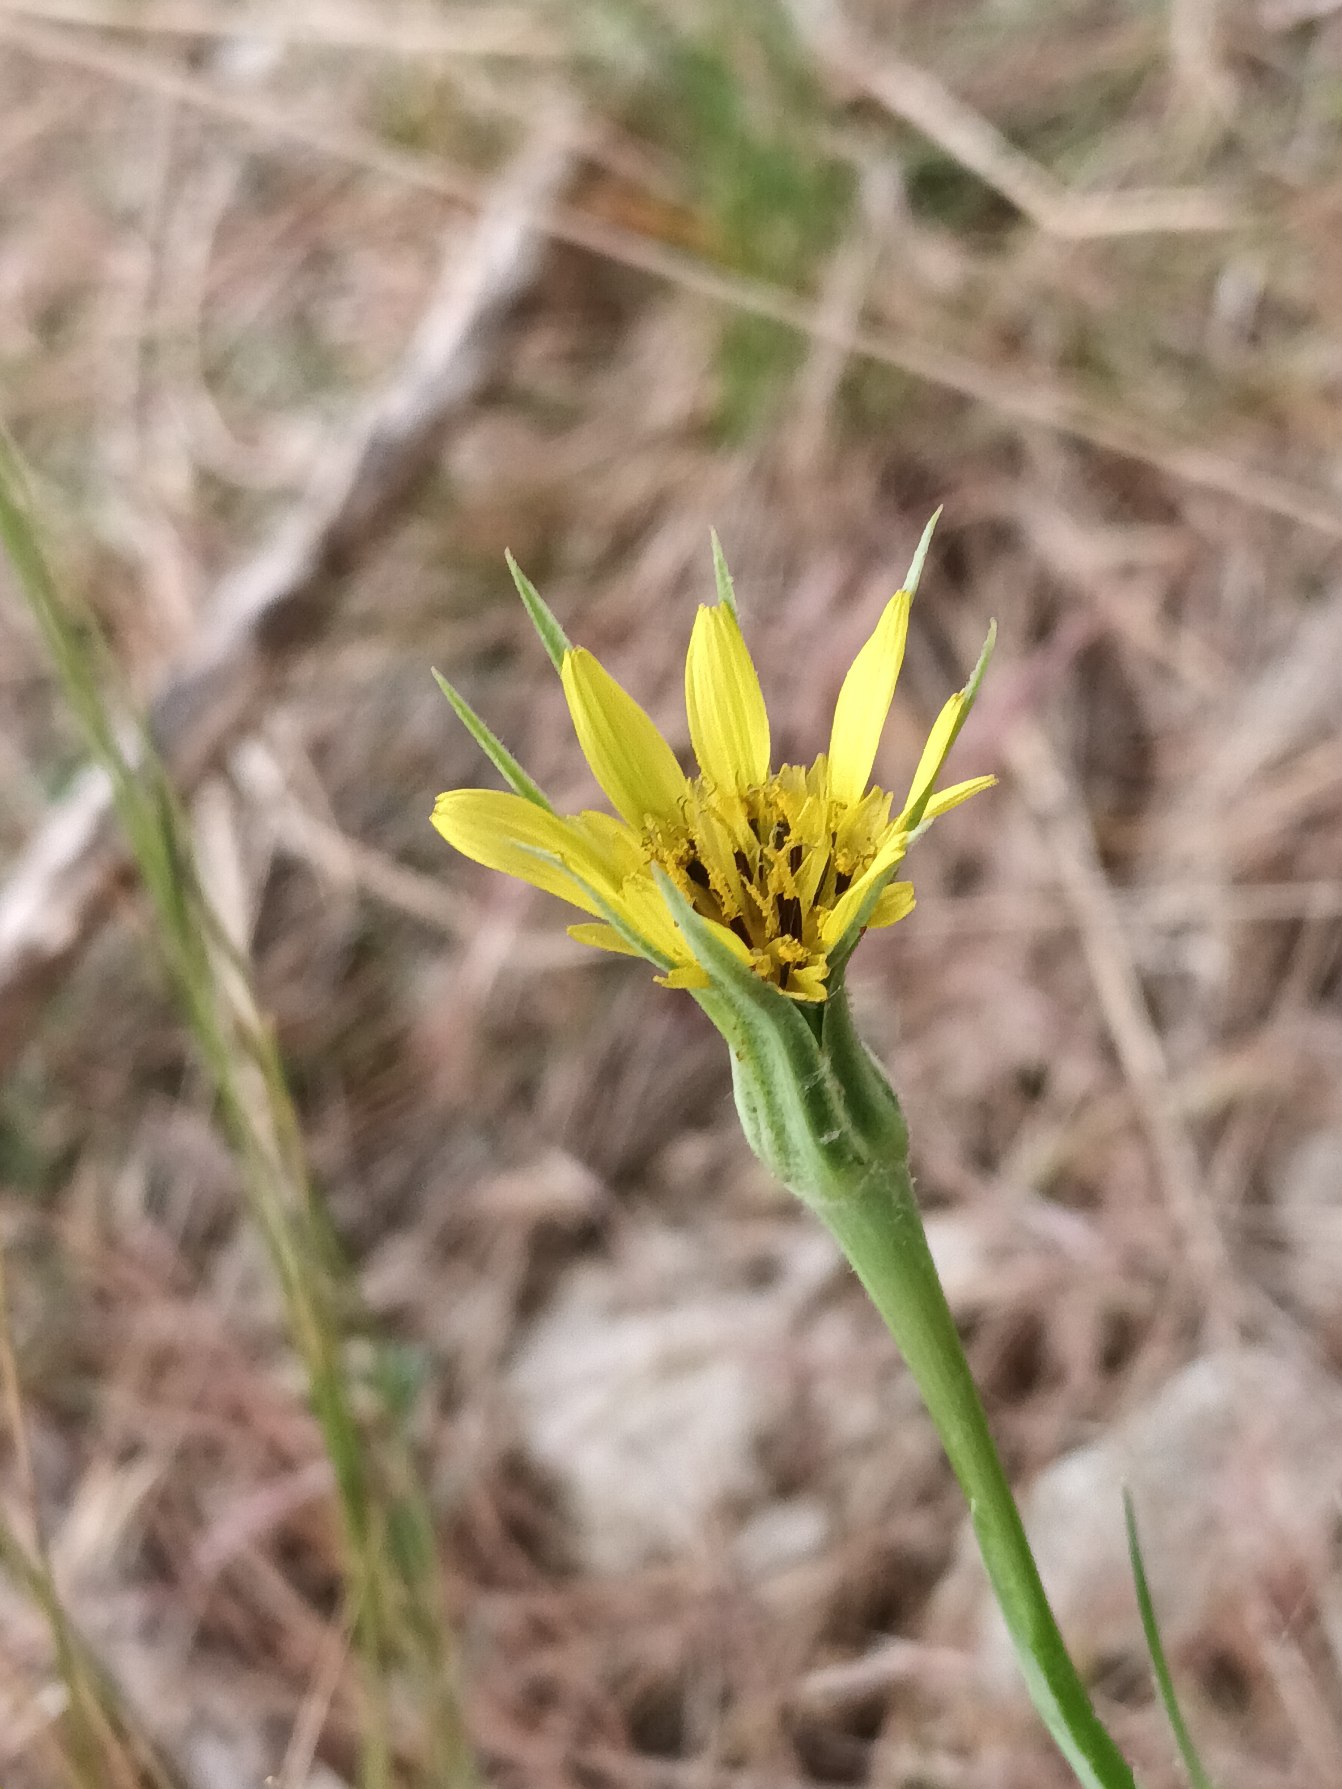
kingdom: Plantae
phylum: Tracheophyta
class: Magnoliopsida
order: Asterales
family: Asteraceae
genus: Tragopogon
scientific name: Tragopogon dubius
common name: Stor gedeskæg
